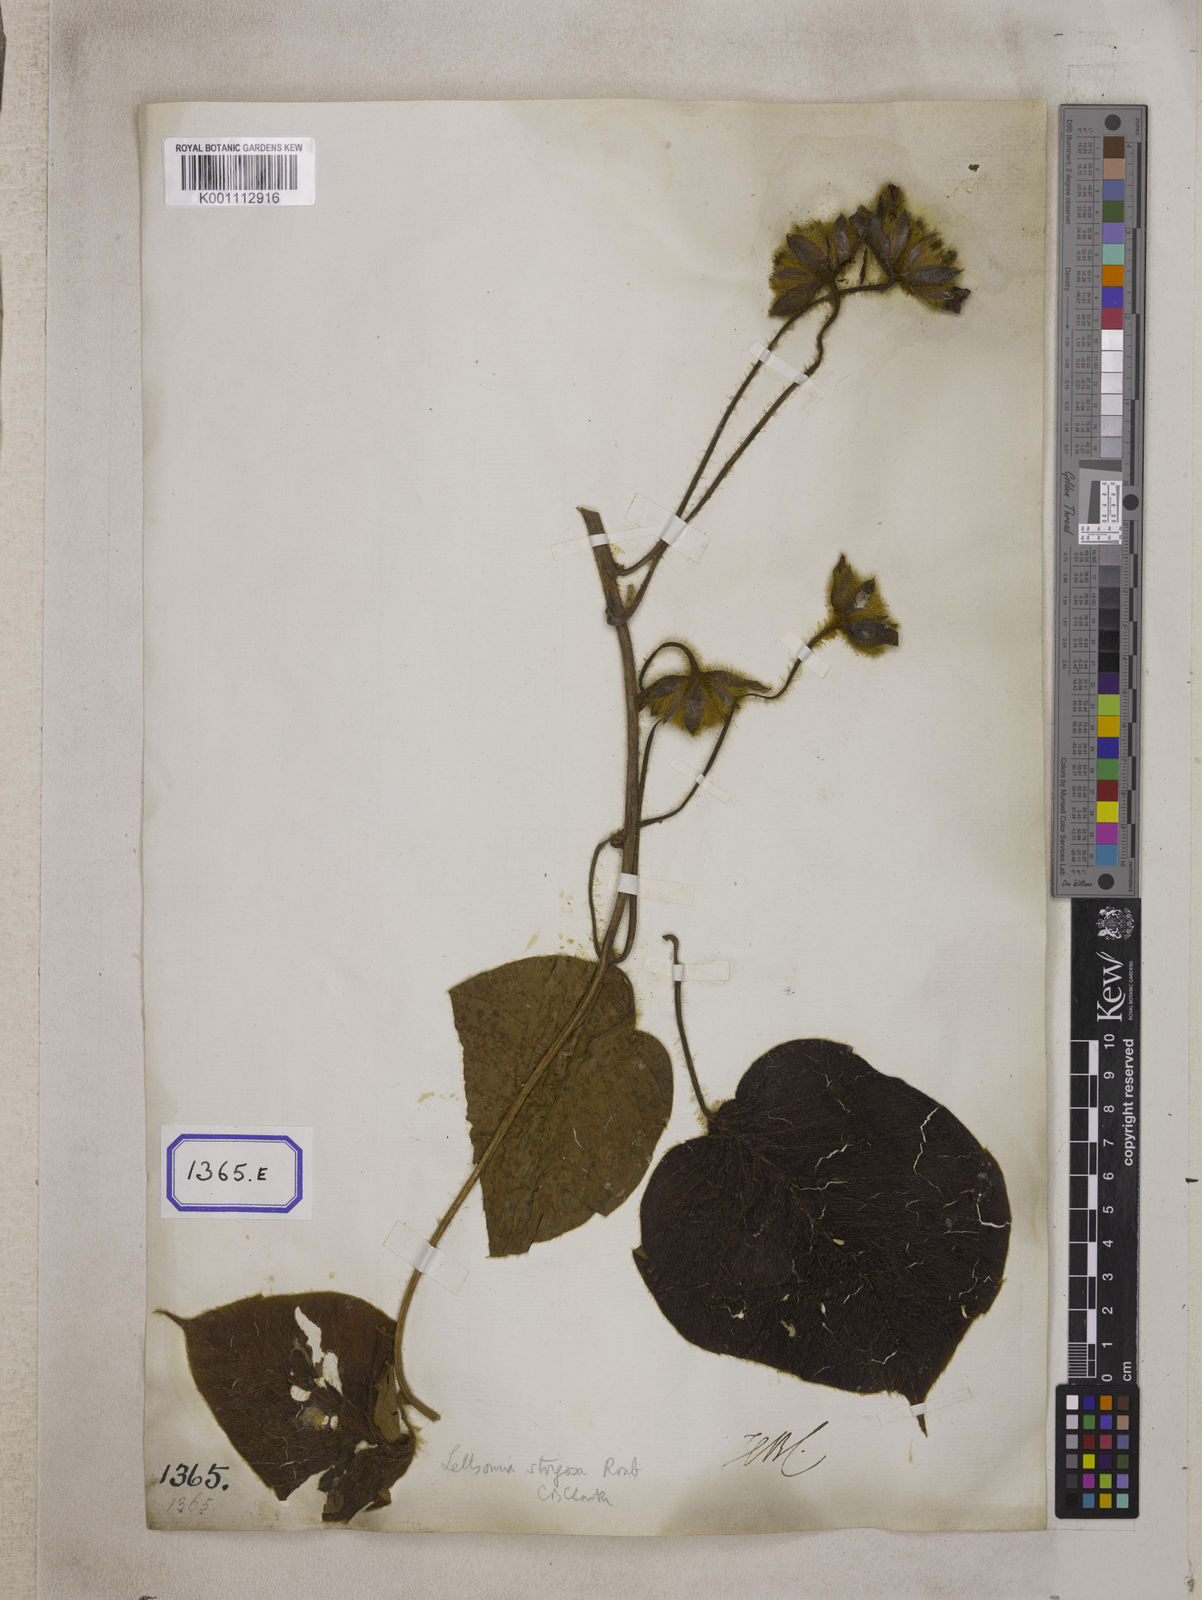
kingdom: Plantae
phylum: Tracheophyta
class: Magnoliopsida
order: Solanales
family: Convolvulaceae
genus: Convolvulus
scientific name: Convolvulus
